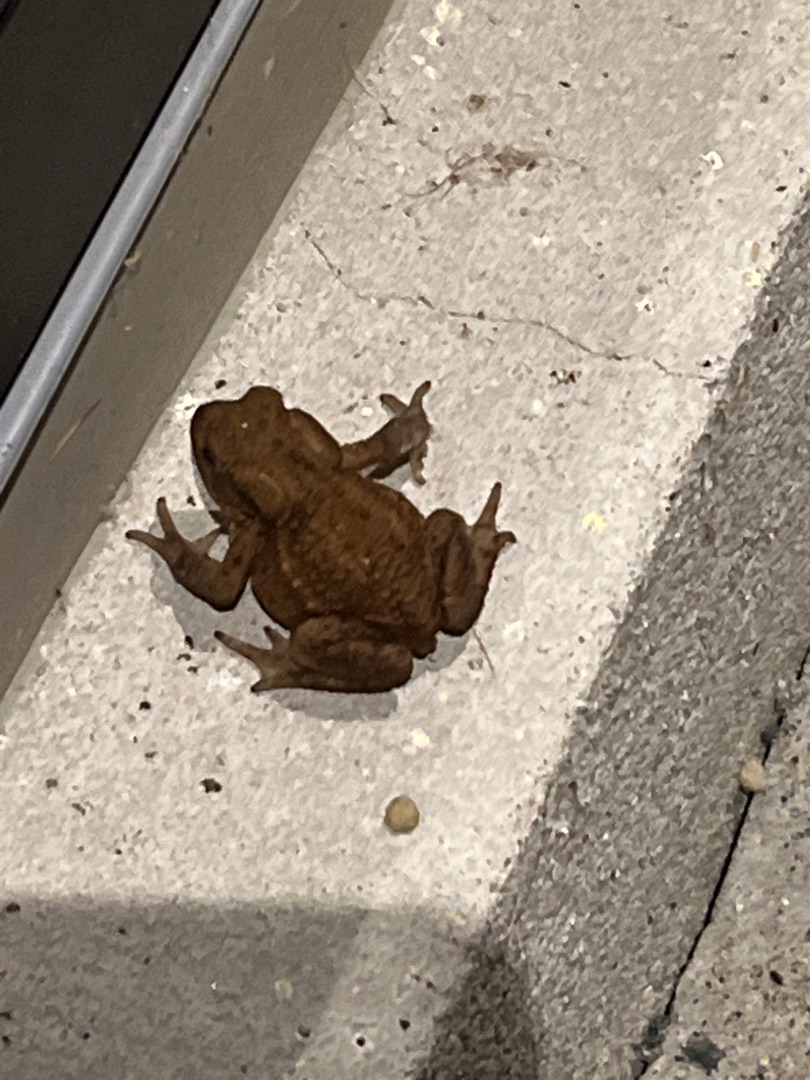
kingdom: Animalia
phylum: Chordata
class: Amphibia
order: Anura
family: Bufonidae
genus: Bufo
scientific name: Bufo bufo
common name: Skrubtudse
